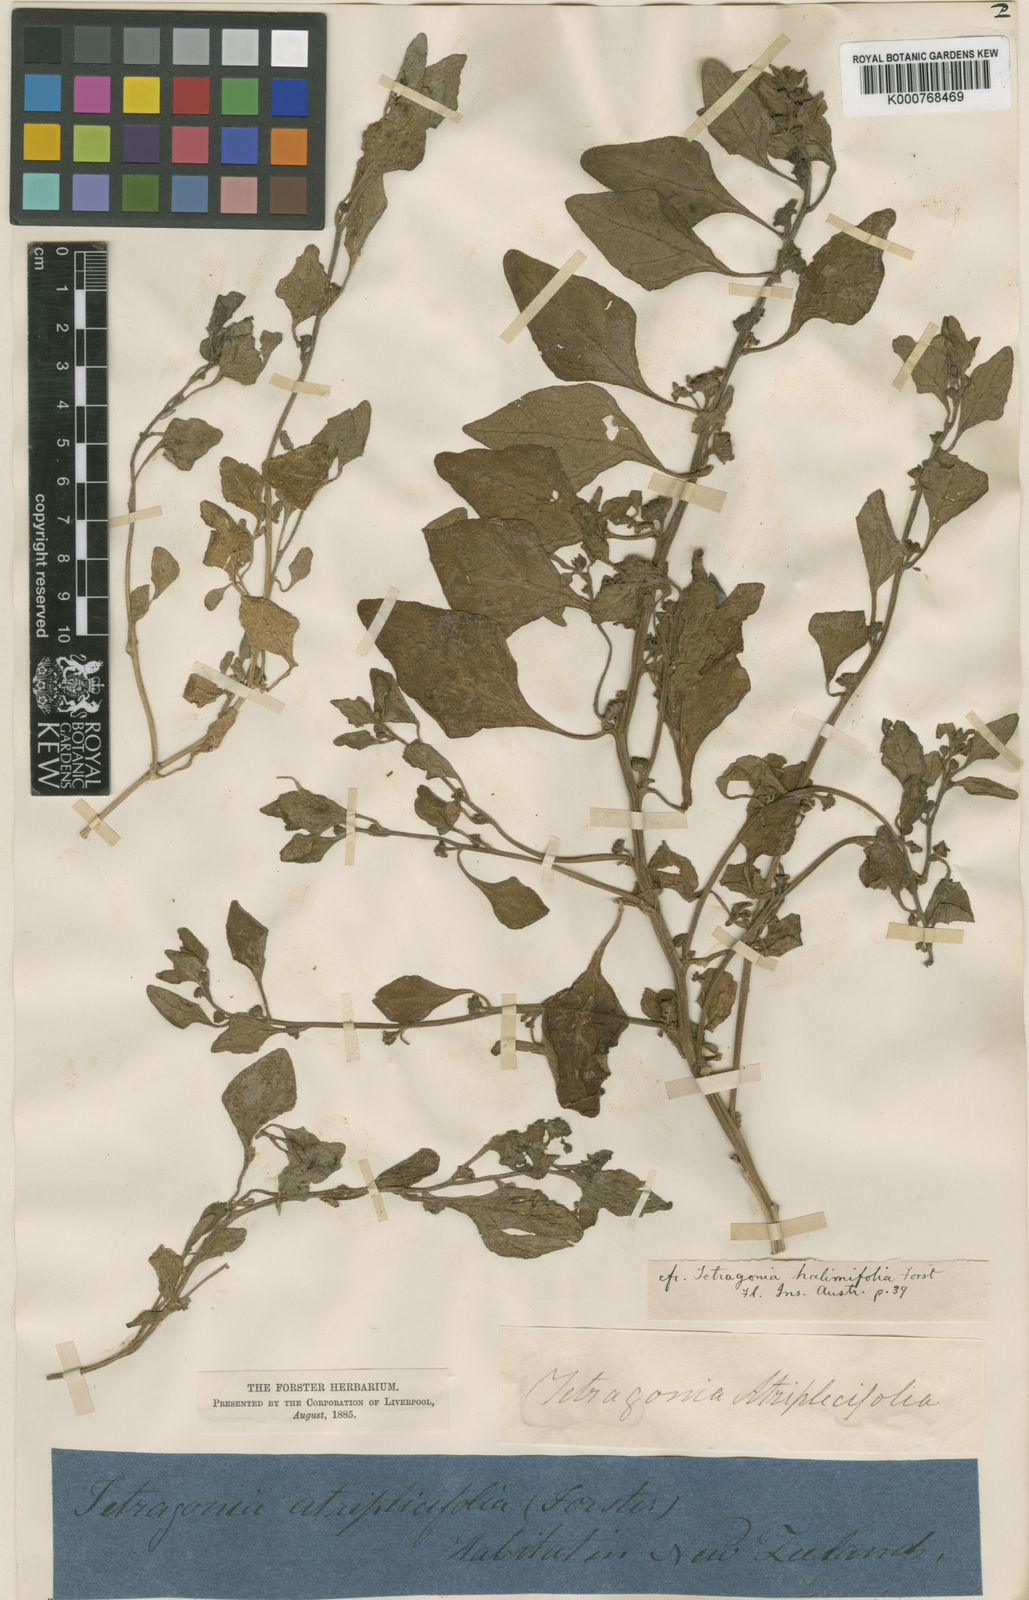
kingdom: Plantae
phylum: Tracheophyta
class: Magnoliopsida
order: Caryophyllales
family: Aizoaceae
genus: Tetragonia
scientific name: Tetragonia tetragonoides
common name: New zealand-spinach
